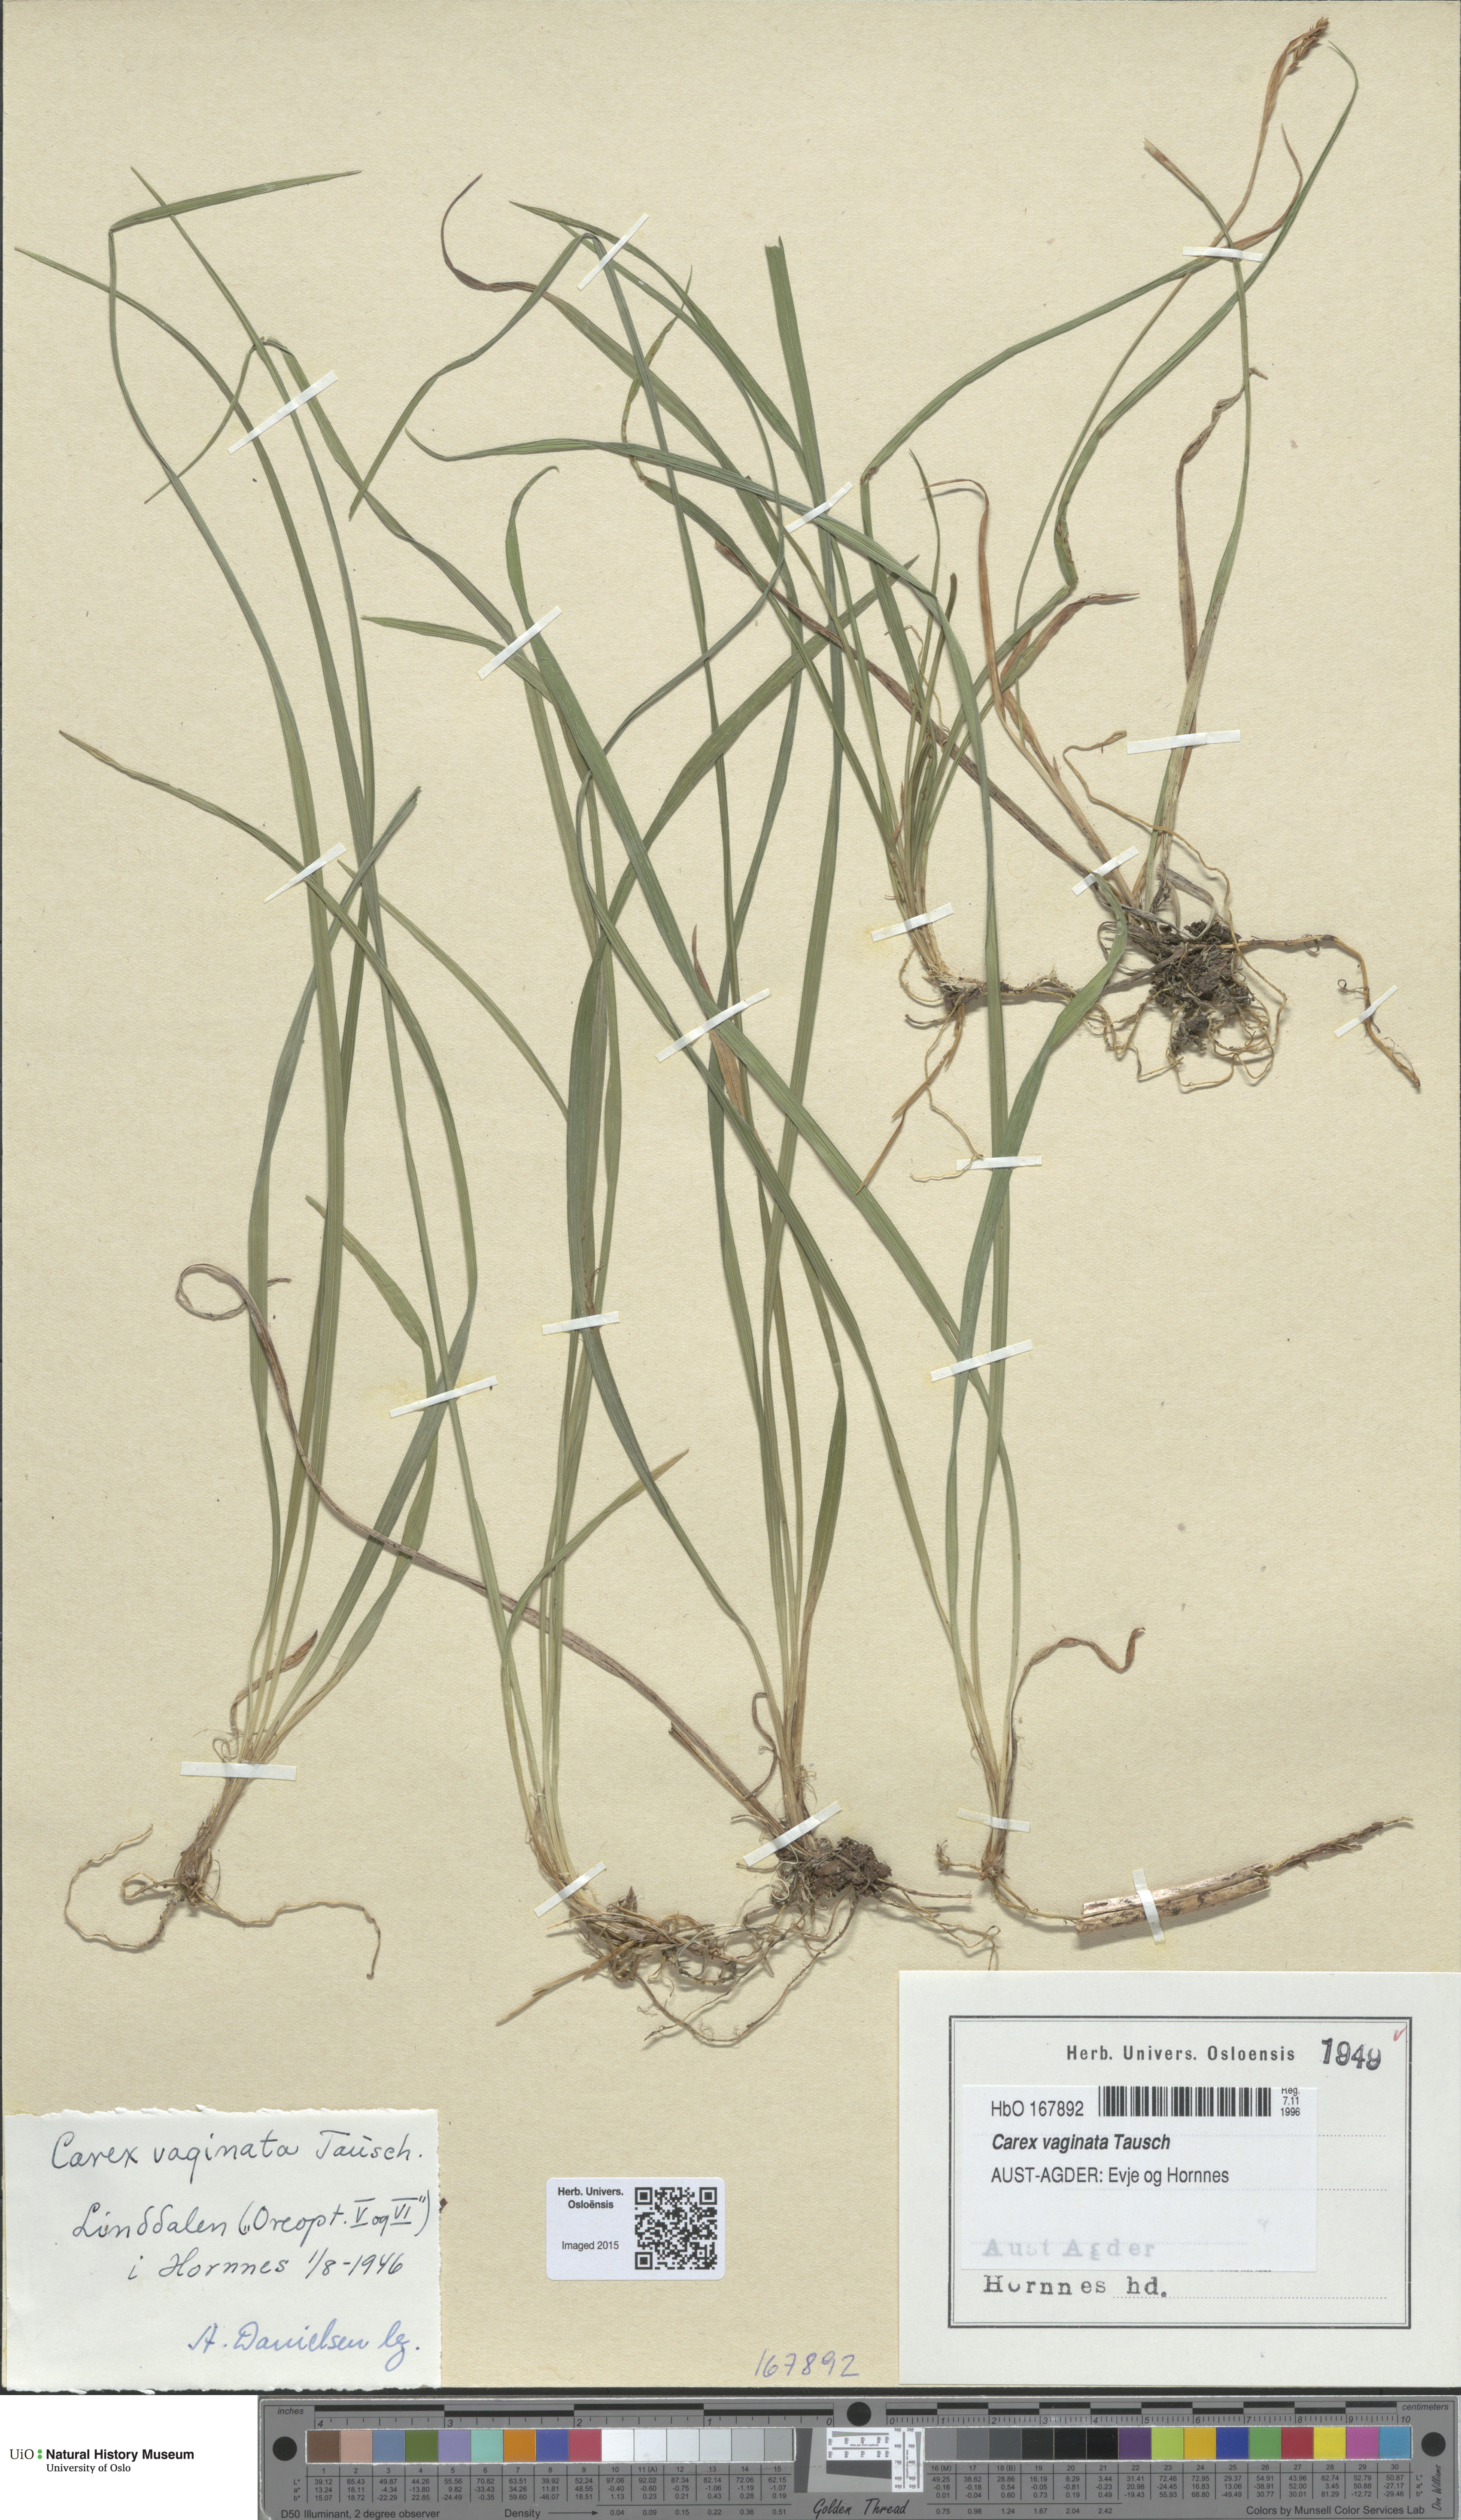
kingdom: Plantae
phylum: Tracheophyta
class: Liliopsida
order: Poales
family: Cyperaceae
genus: Carex
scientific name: Carex vaginata
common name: Sheathed sedge
